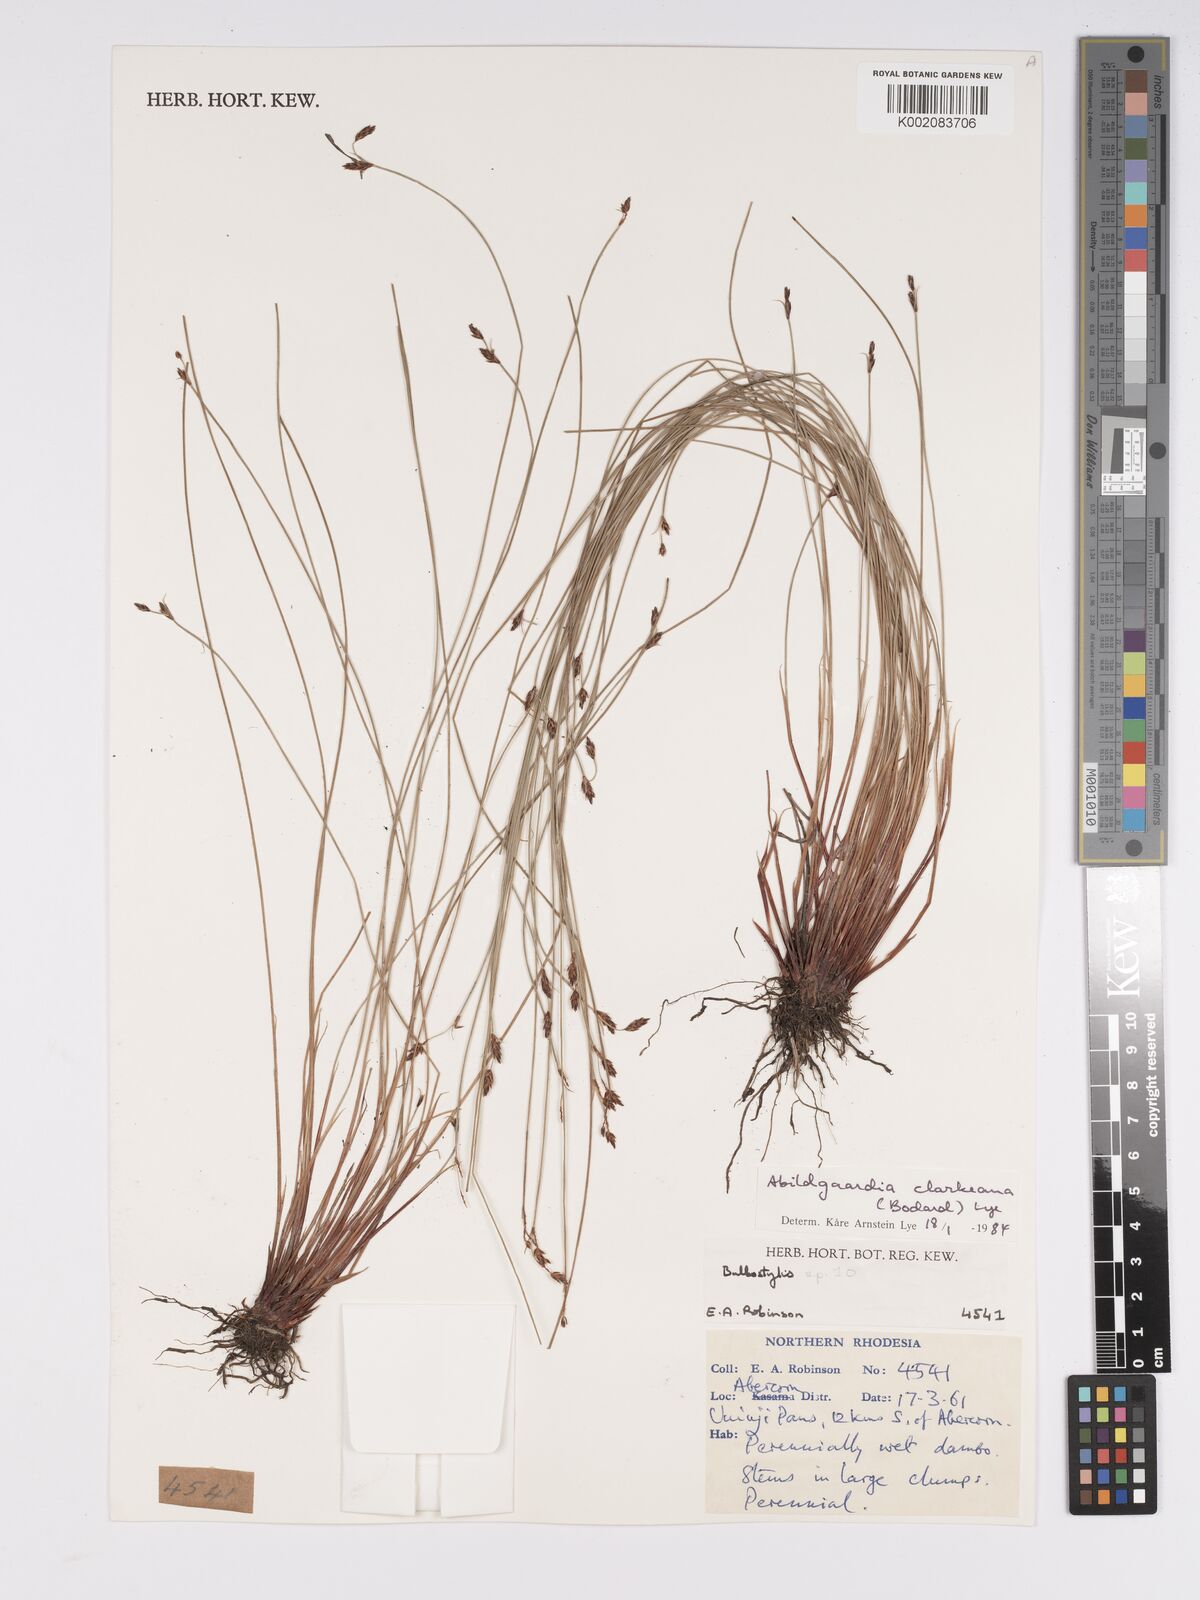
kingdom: Plantae
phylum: Tracheophyta
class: Liliopsida
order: Poales
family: Cyperaceae
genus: Bulbostylis
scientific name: Bulbostylis oritrephes
